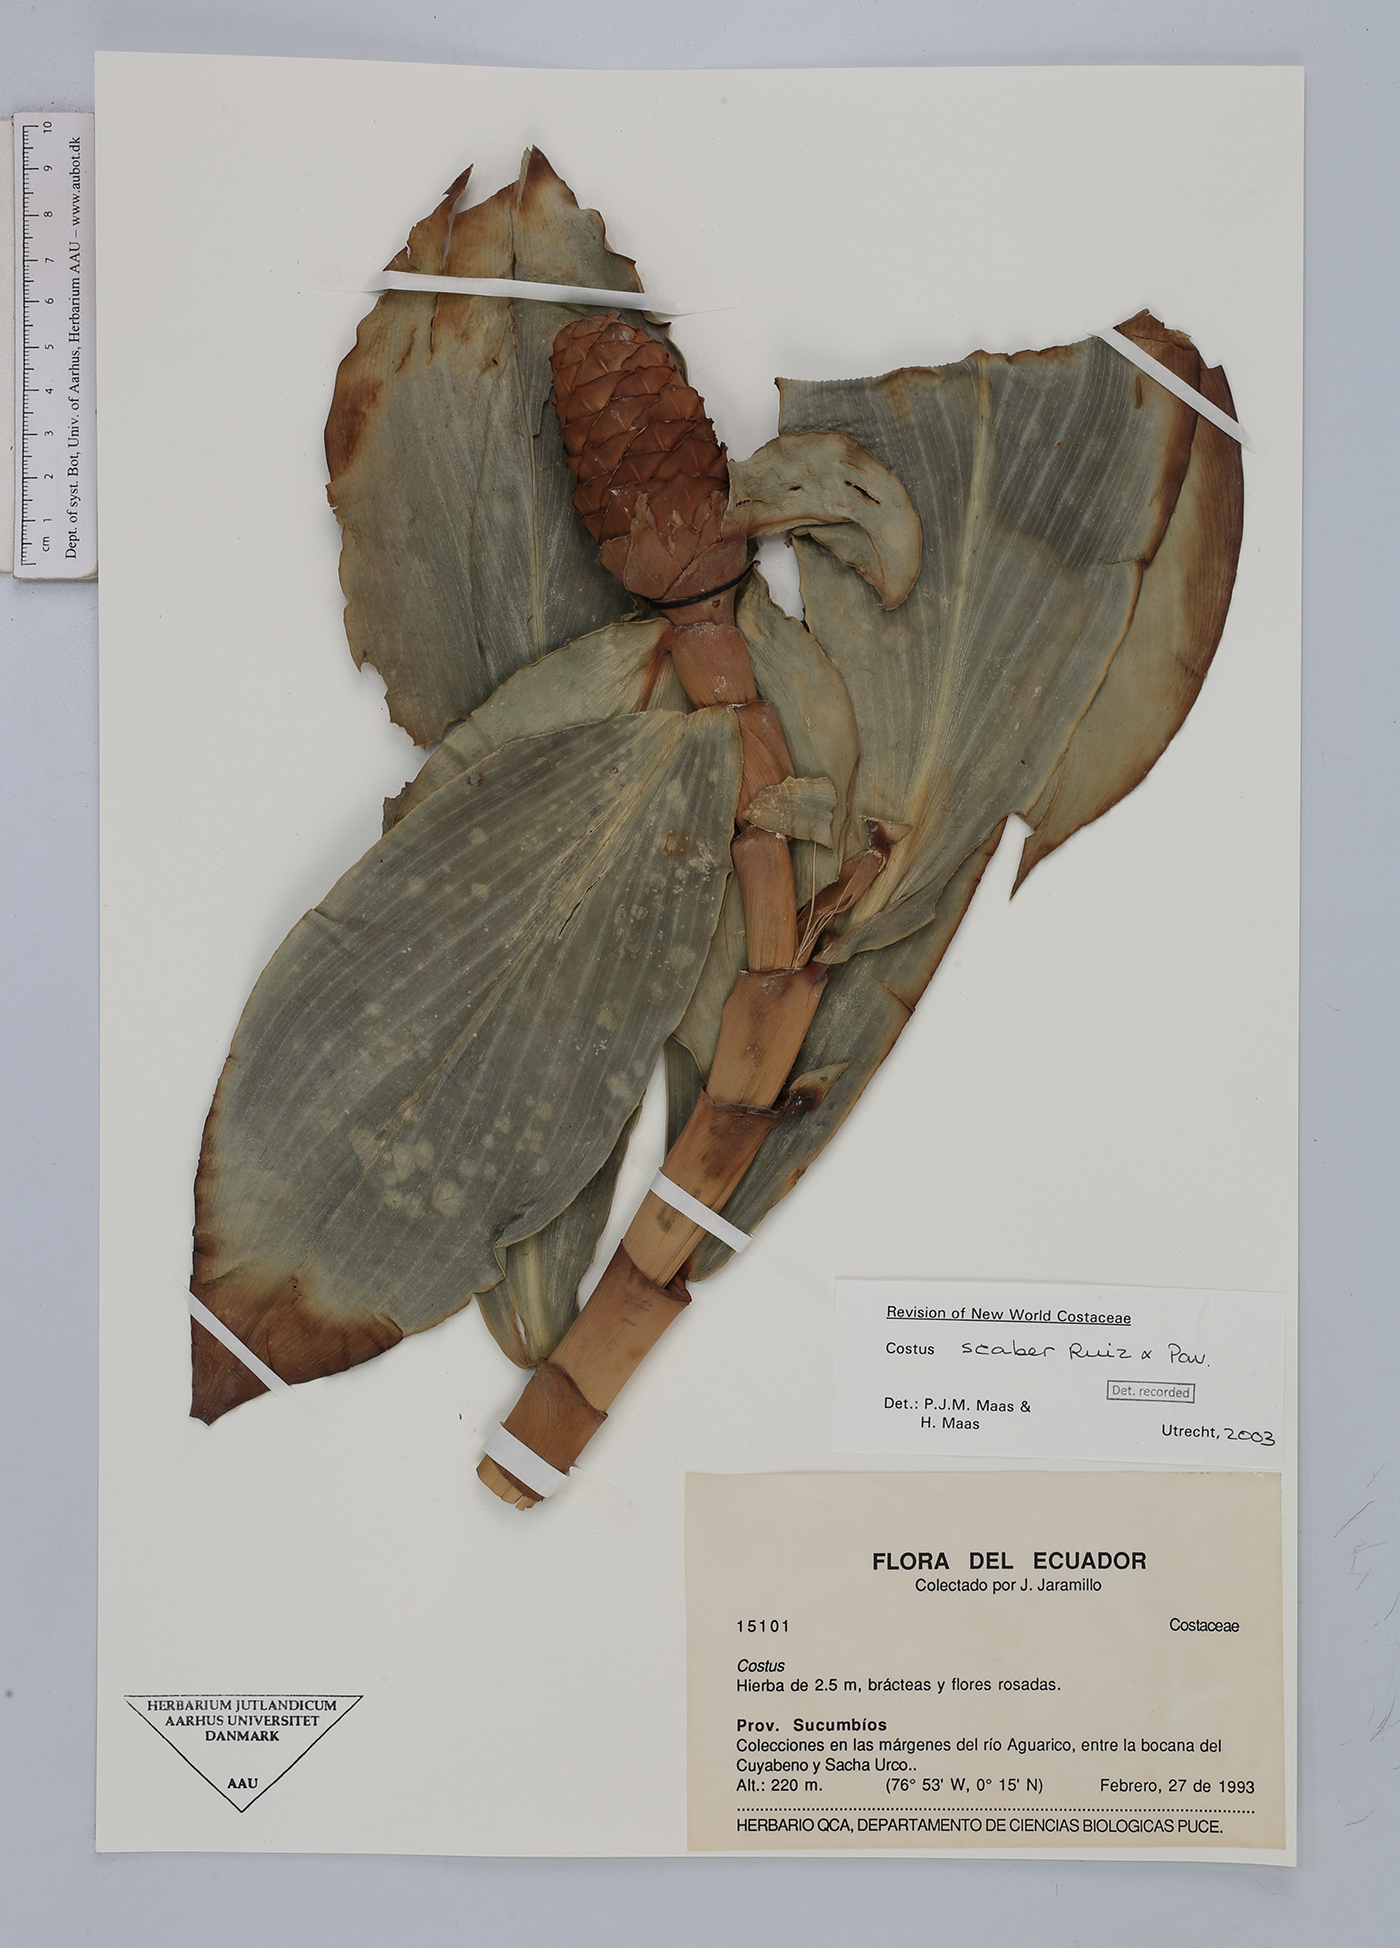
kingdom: Plantae
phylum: Tracheophyta
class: Liliopsida
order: Zingiberales
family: Costaceae
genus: Costus
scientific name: Costus scaber
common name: Spiral head ginger
